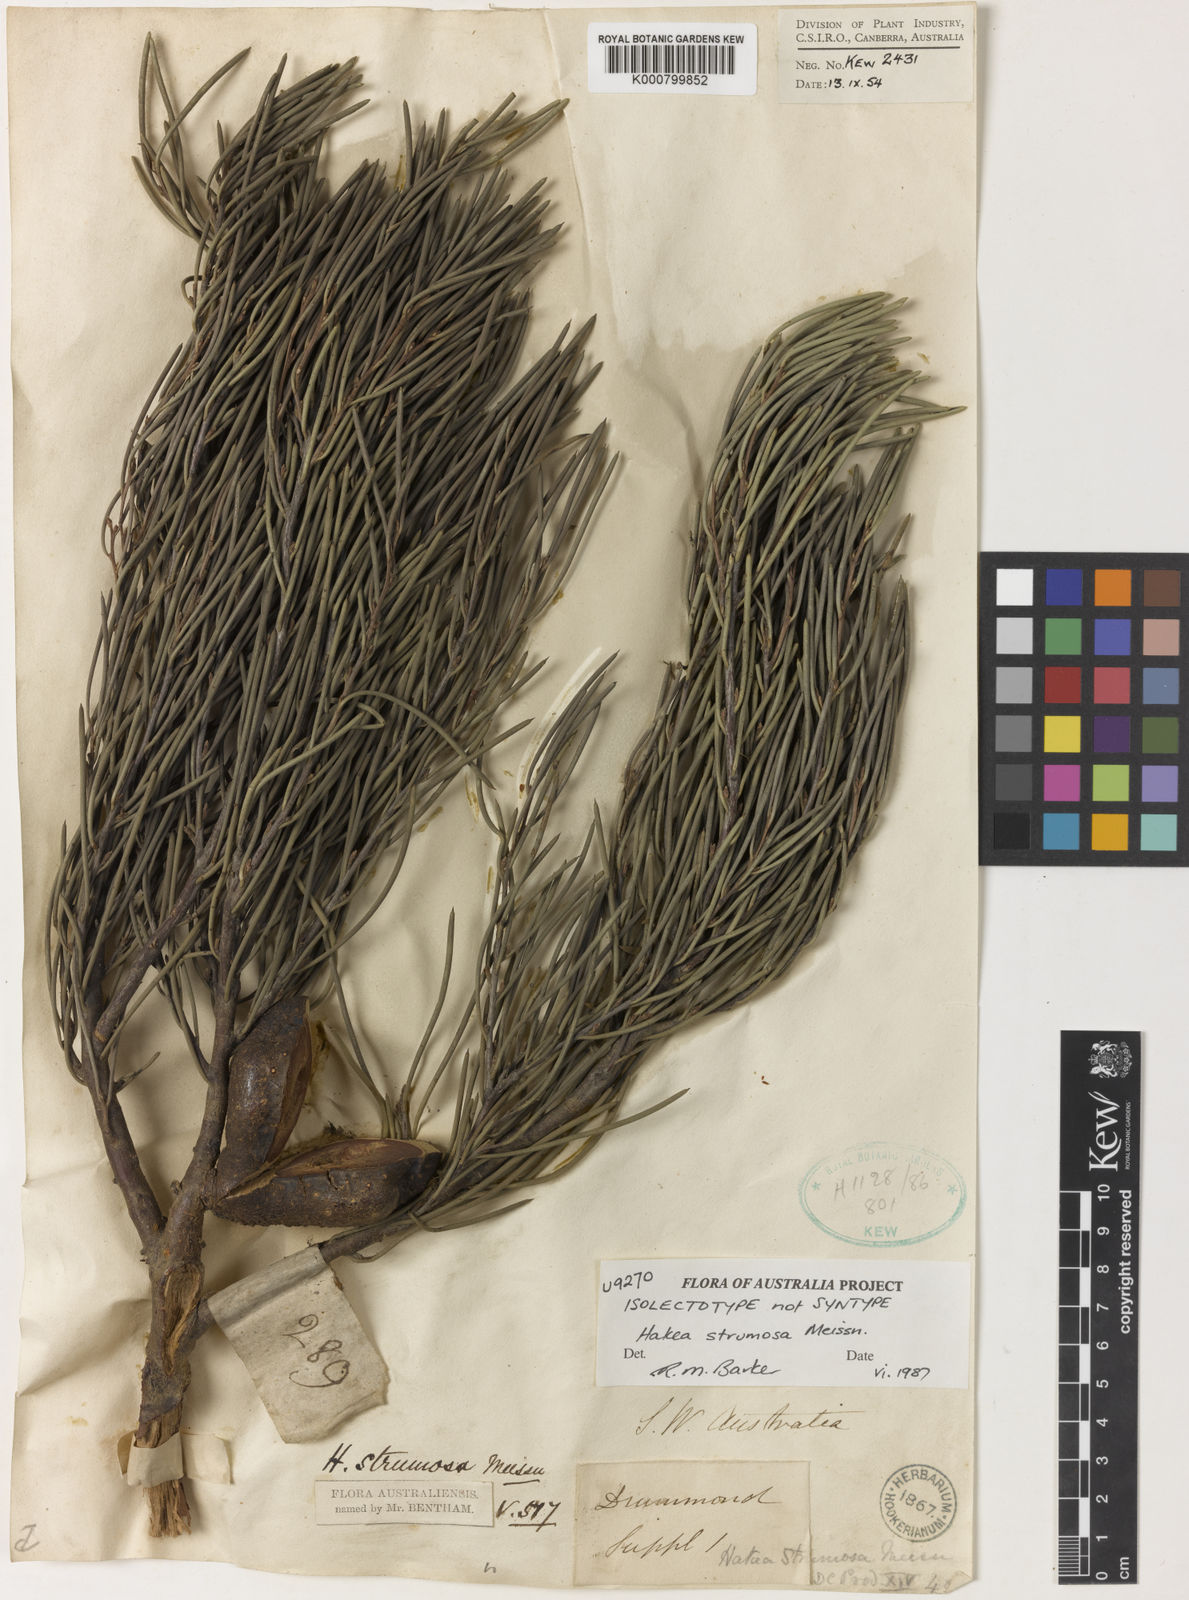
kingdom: Plantae
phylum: Tracheophyta
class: Magnoliopsida
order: Proteales
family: Proteaceae
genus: Hakea
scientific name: Hakea strumosa
